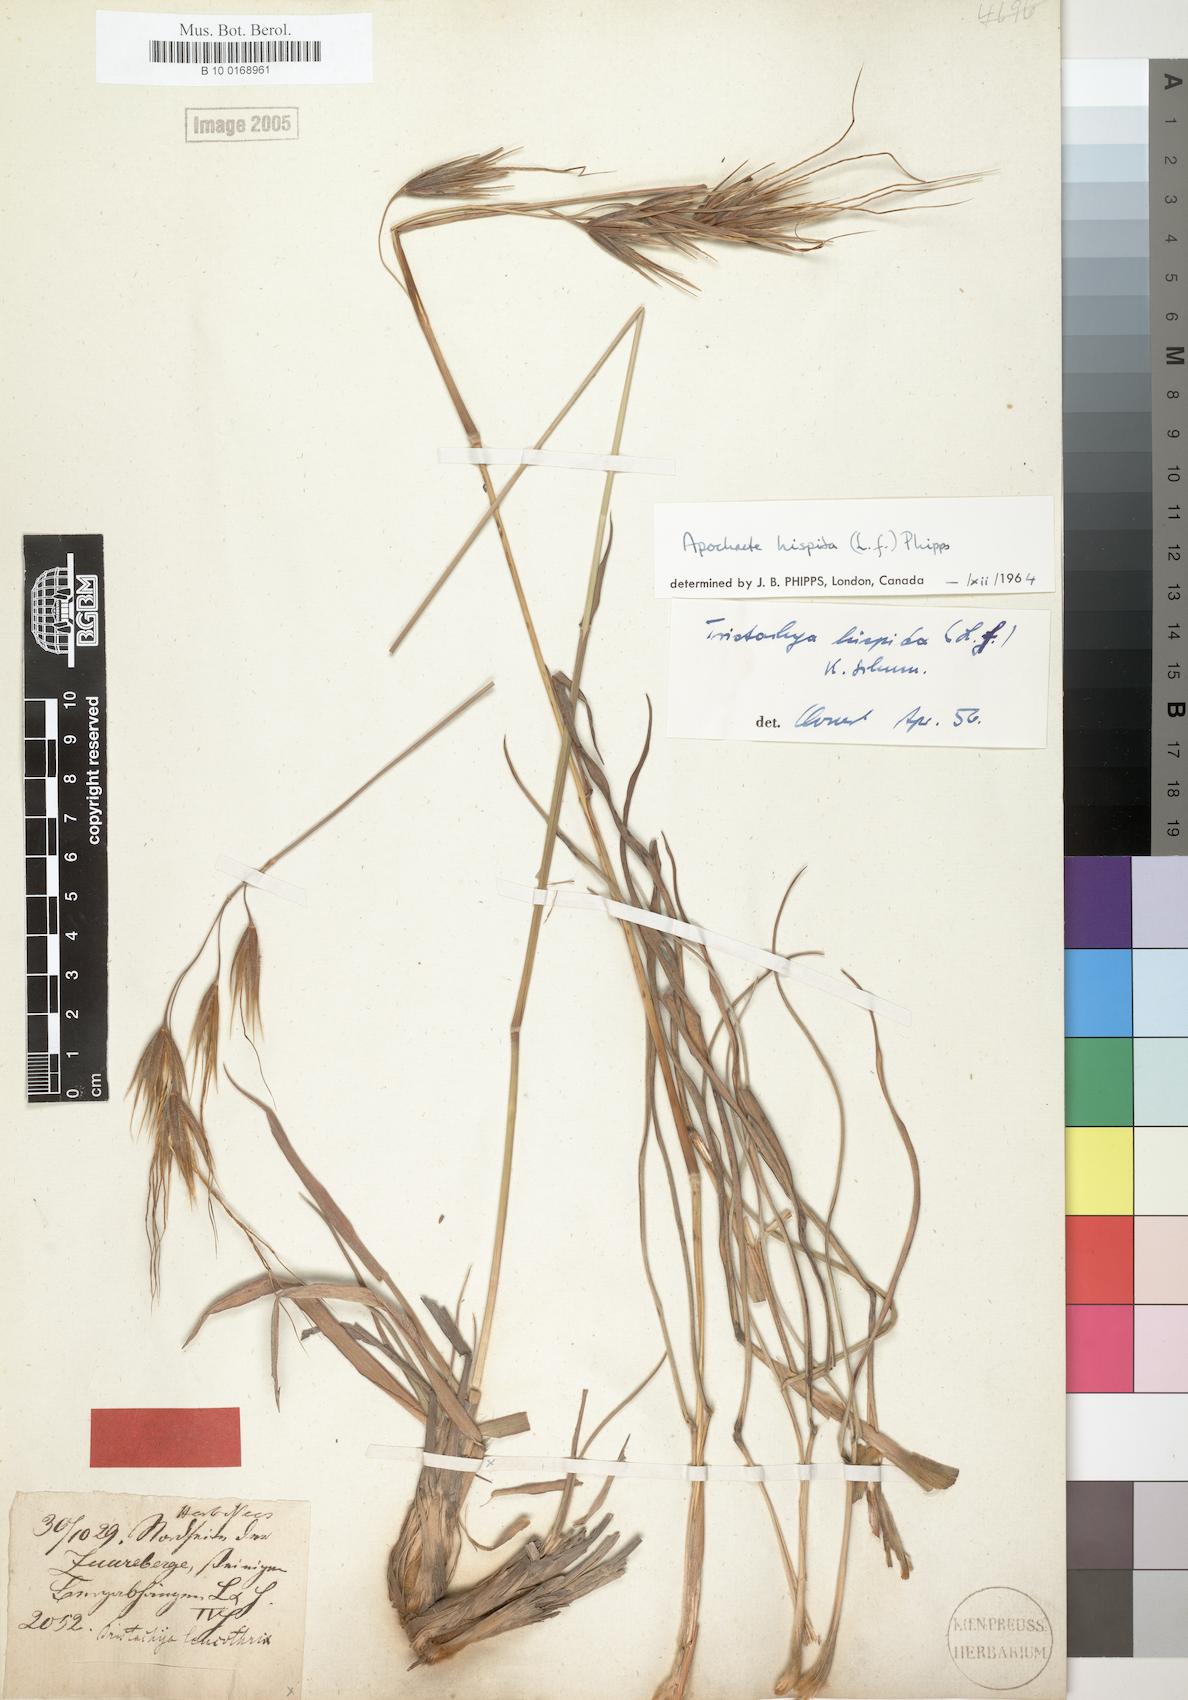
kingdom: Plantae
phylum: Tracheophyta
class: Liliopsida
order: Poales
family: Poaceae
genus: Tristachya
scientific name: Tristachya leucothrix
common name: Trident grass
